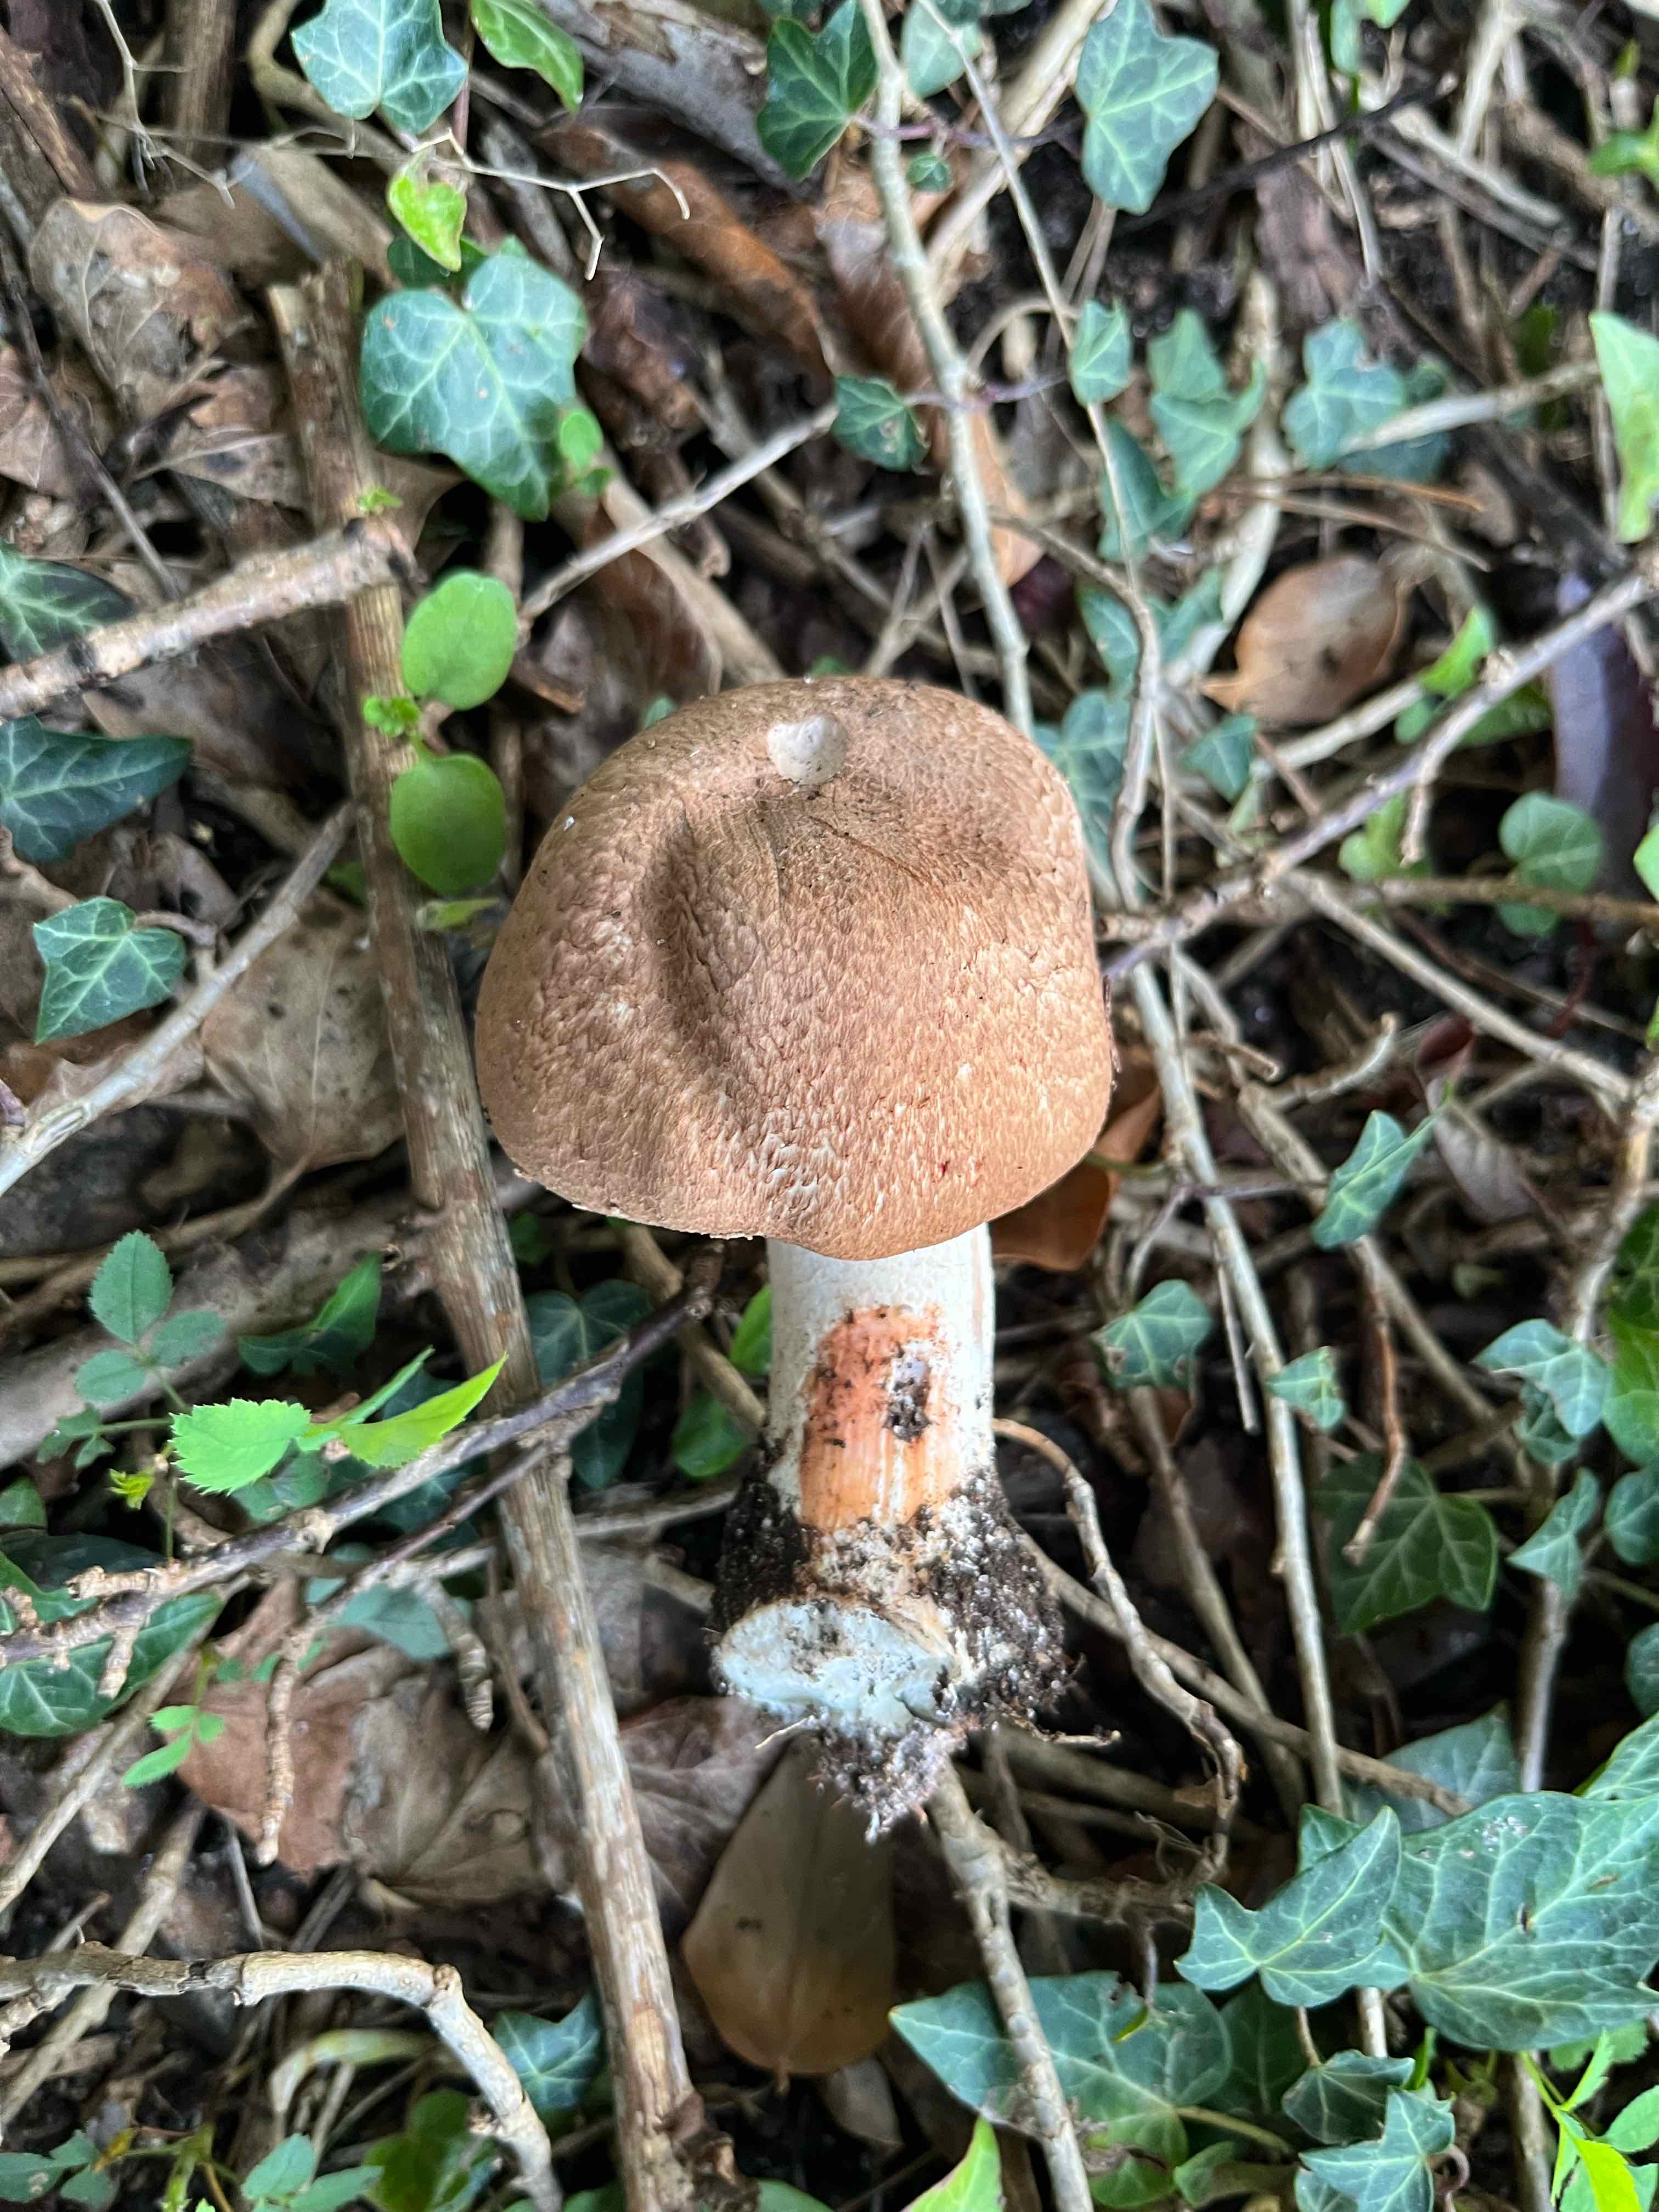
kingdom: Fungi
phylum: Basidiomycota
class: Agaricomycetes
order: Agaricales
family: Agaricaceae
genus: Agaricus
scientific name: Agaricus langei
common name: stor blod-champignon
